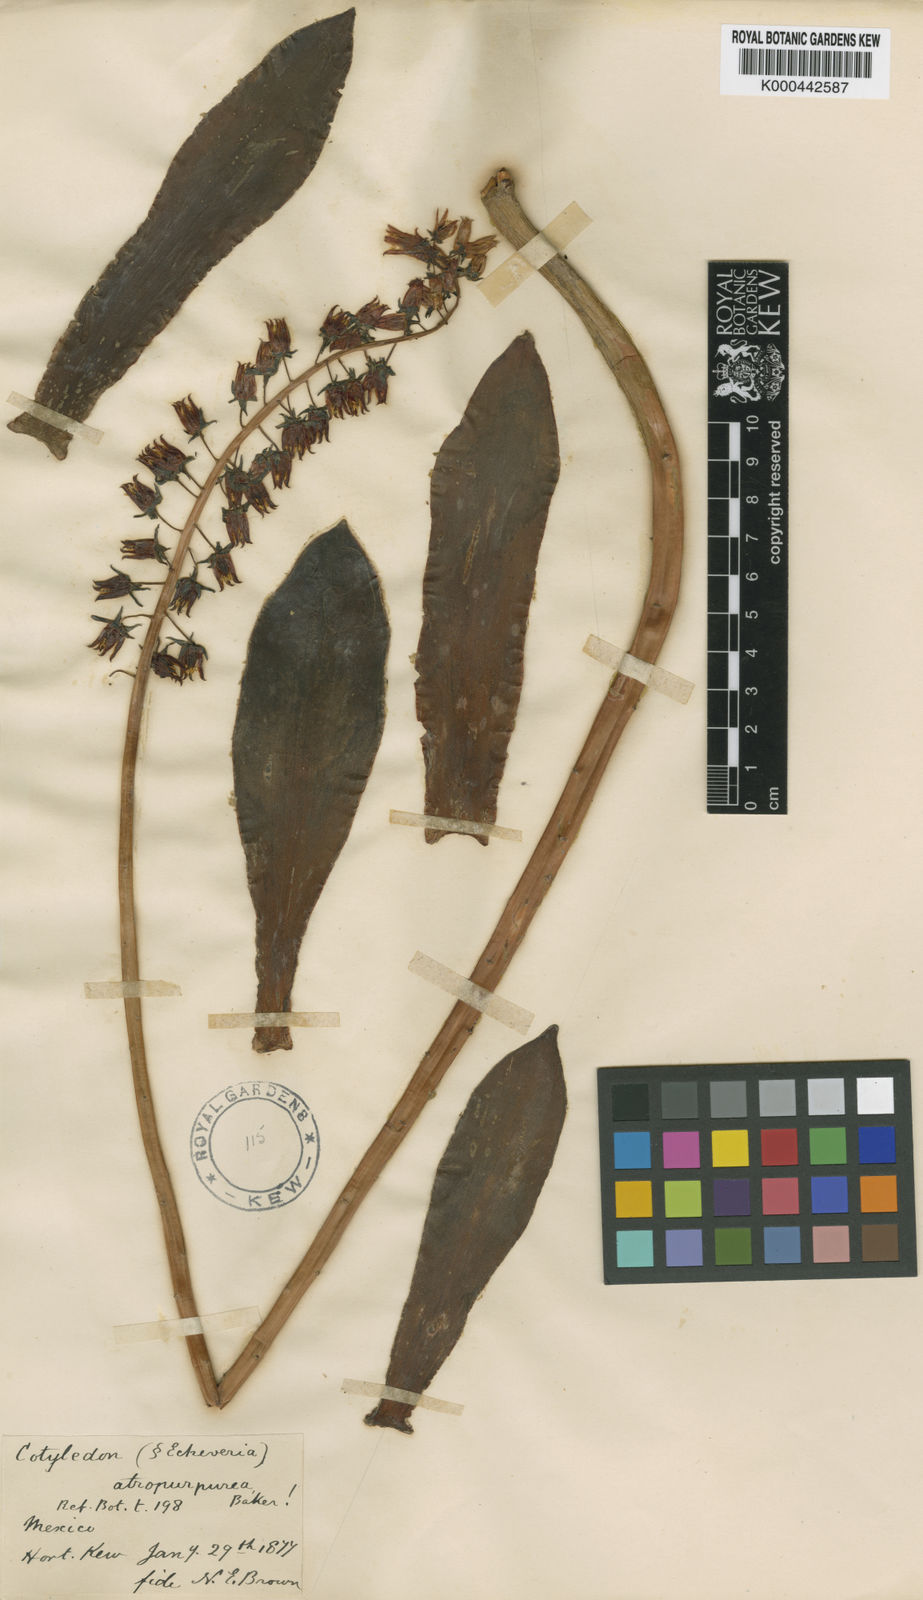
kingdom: Plantae
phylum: Tracheophyta
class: Magnoliopsida
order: Saxifragales
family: Crassulaceae
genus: Echeveria
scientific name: Echeveria atropurpurea
